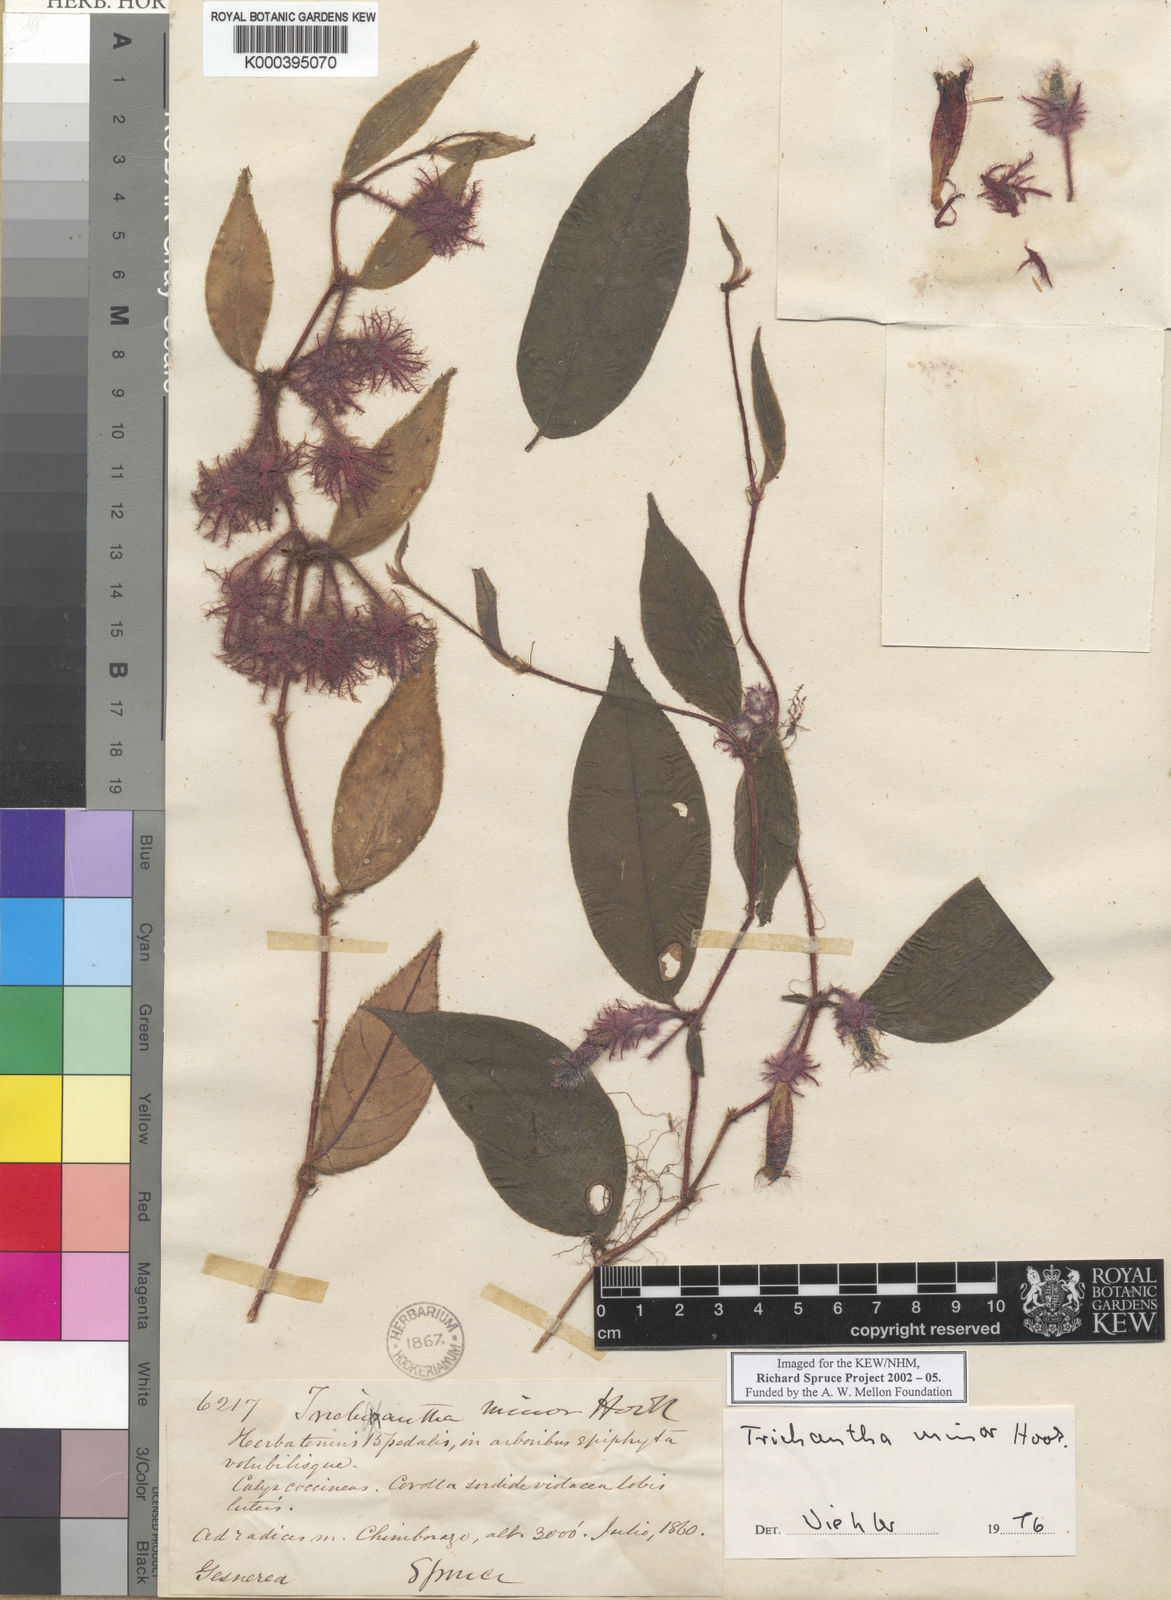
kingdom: Plantae
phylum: Tracheophyta
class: Magnoliopsida
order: Lamiales
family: Gesneriaceae
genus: Columnea
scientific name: Columnea minor
